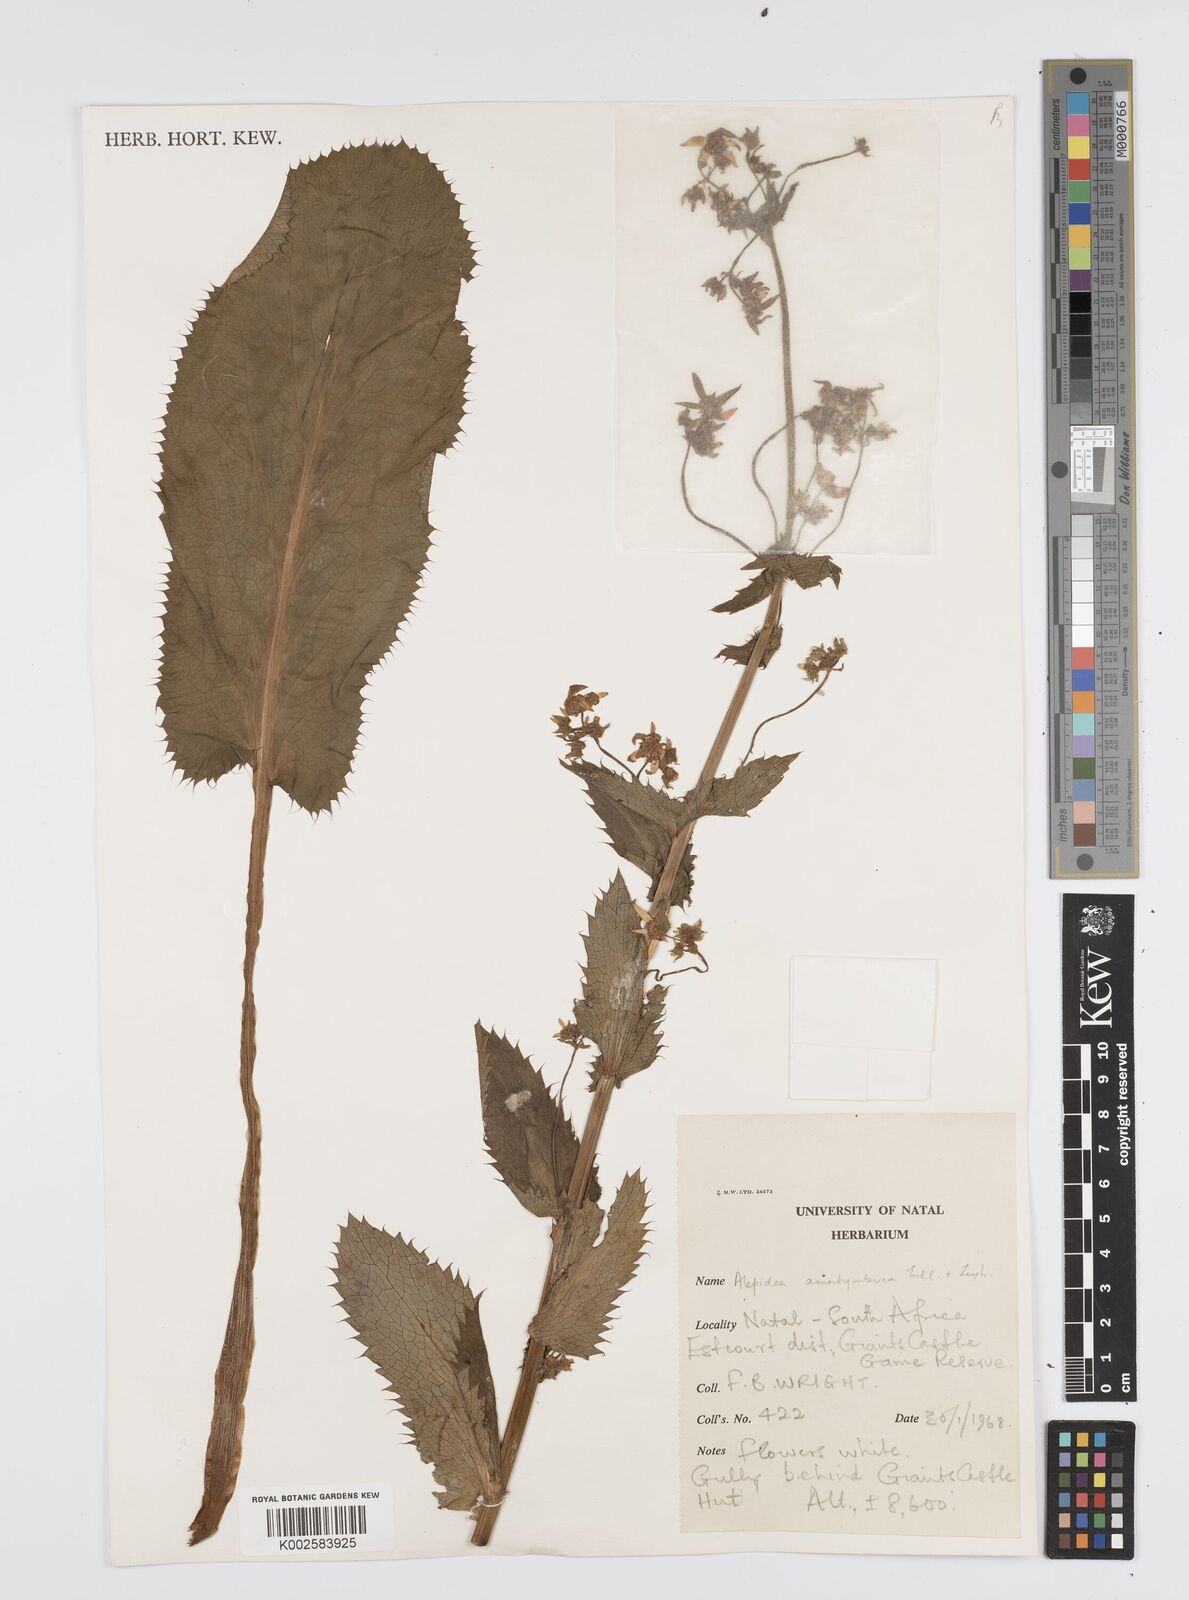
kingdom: Plantae
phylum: Tracheophyta
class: Magnoliopsida
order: Apiales
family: Apiaceae
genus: Alepidea
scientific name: Alepidea amatymbica
